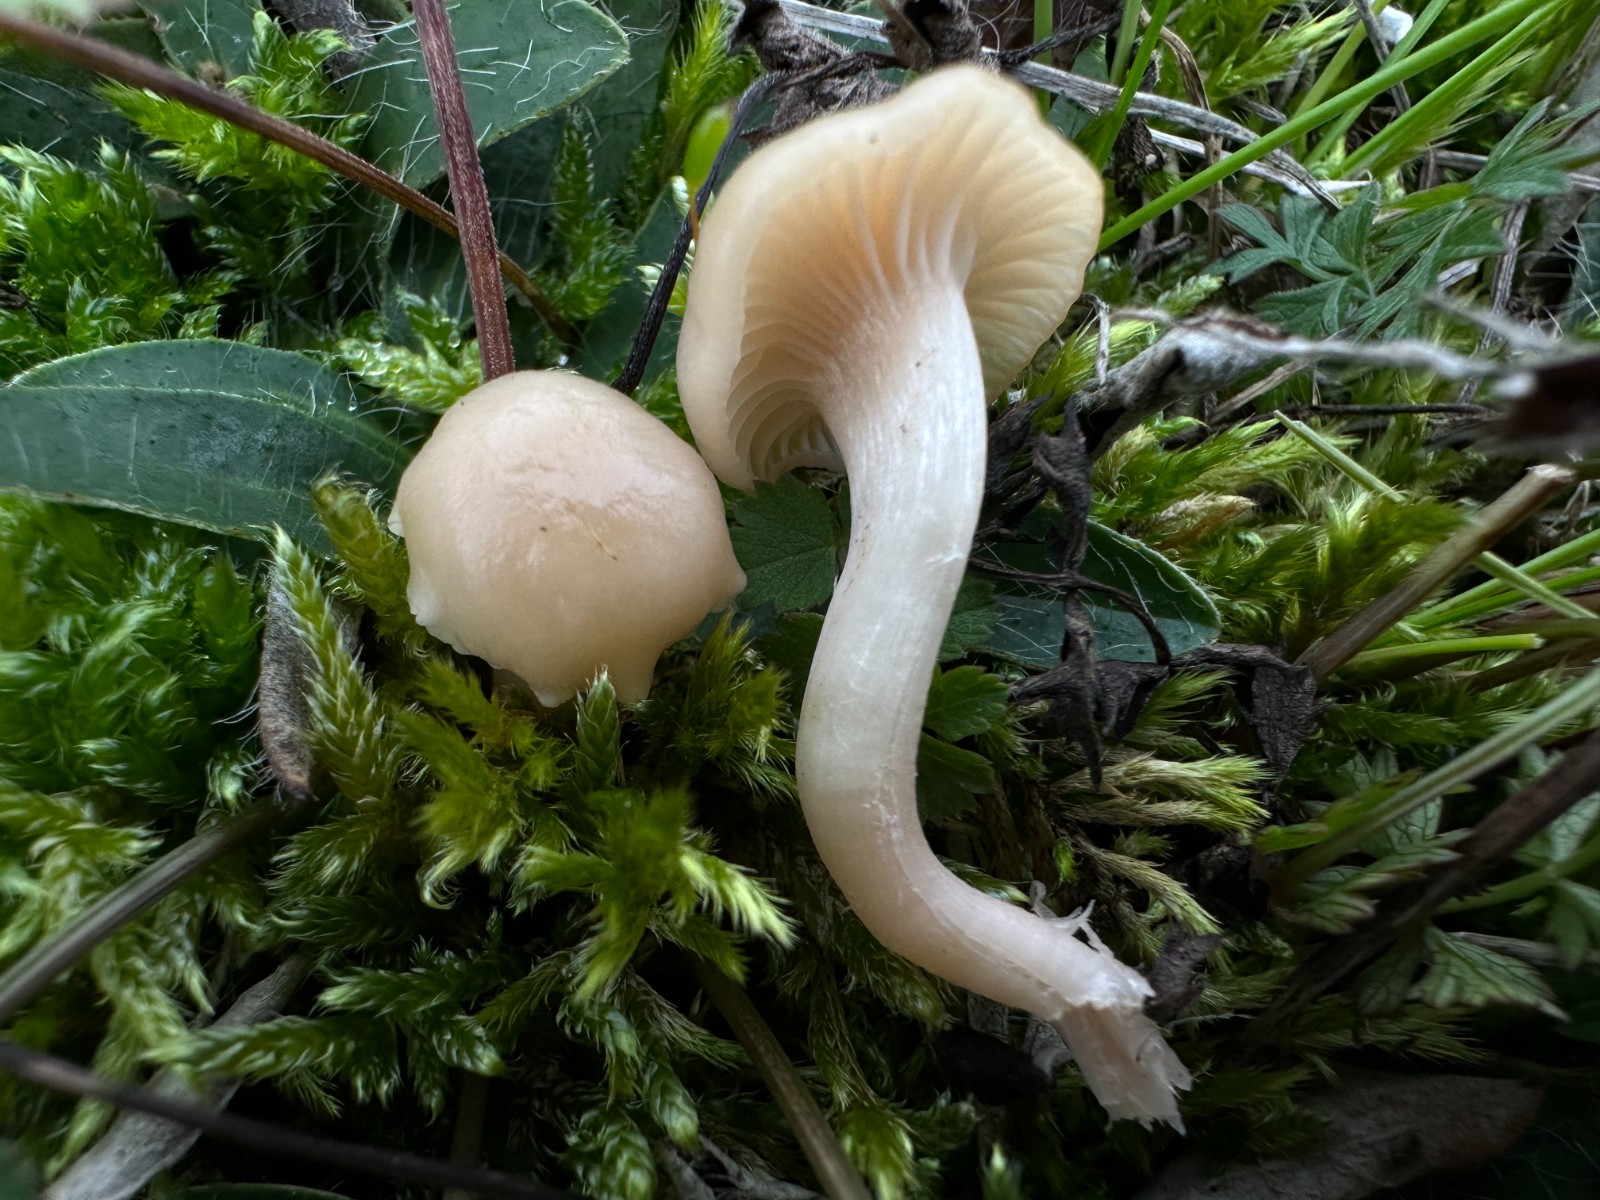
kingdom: Fungi
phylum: Basidiomycota
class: Agaricomycetes
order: Agaricales
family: Hygrophoraceae
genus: Cuphophyllus
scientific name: Cuphophyllus virgineus
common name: isabella-vokshat
